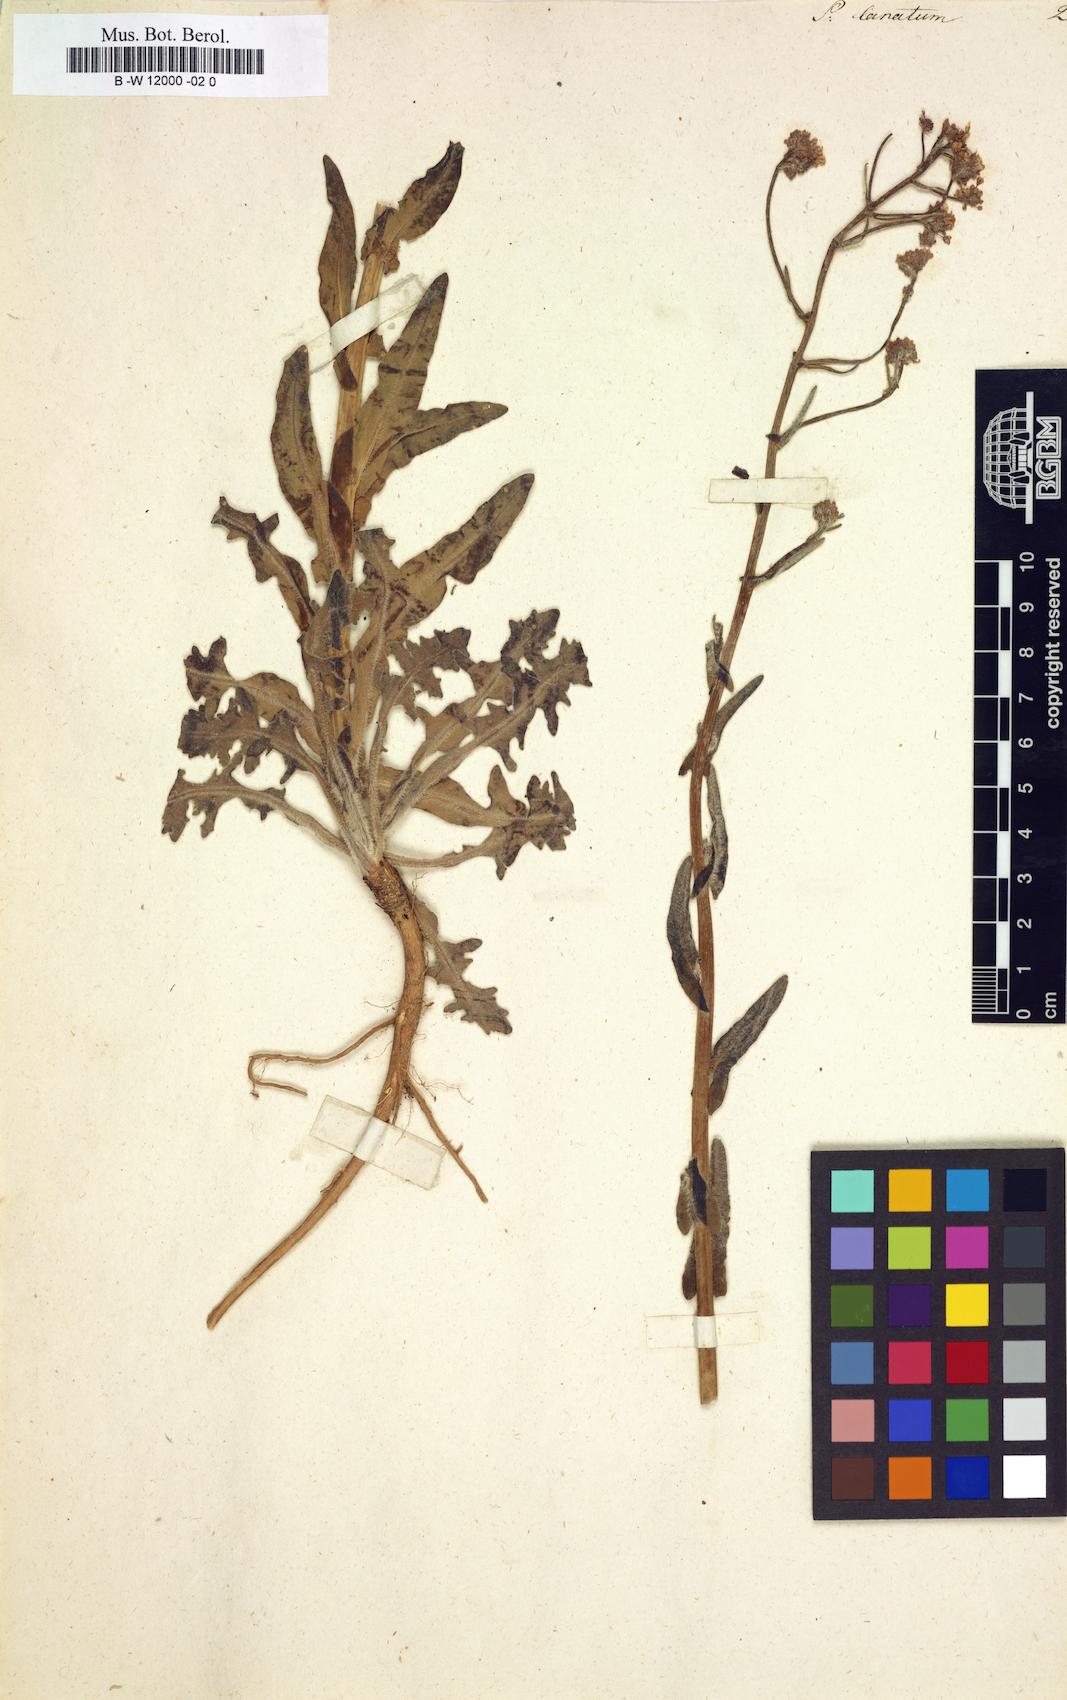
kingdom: Plantae
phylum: Tracheophyta
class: Magnoliopsida
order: Brassicales
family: Brassicaceae
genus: Neuontobotrys
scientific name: Neuontobotrys lanata
